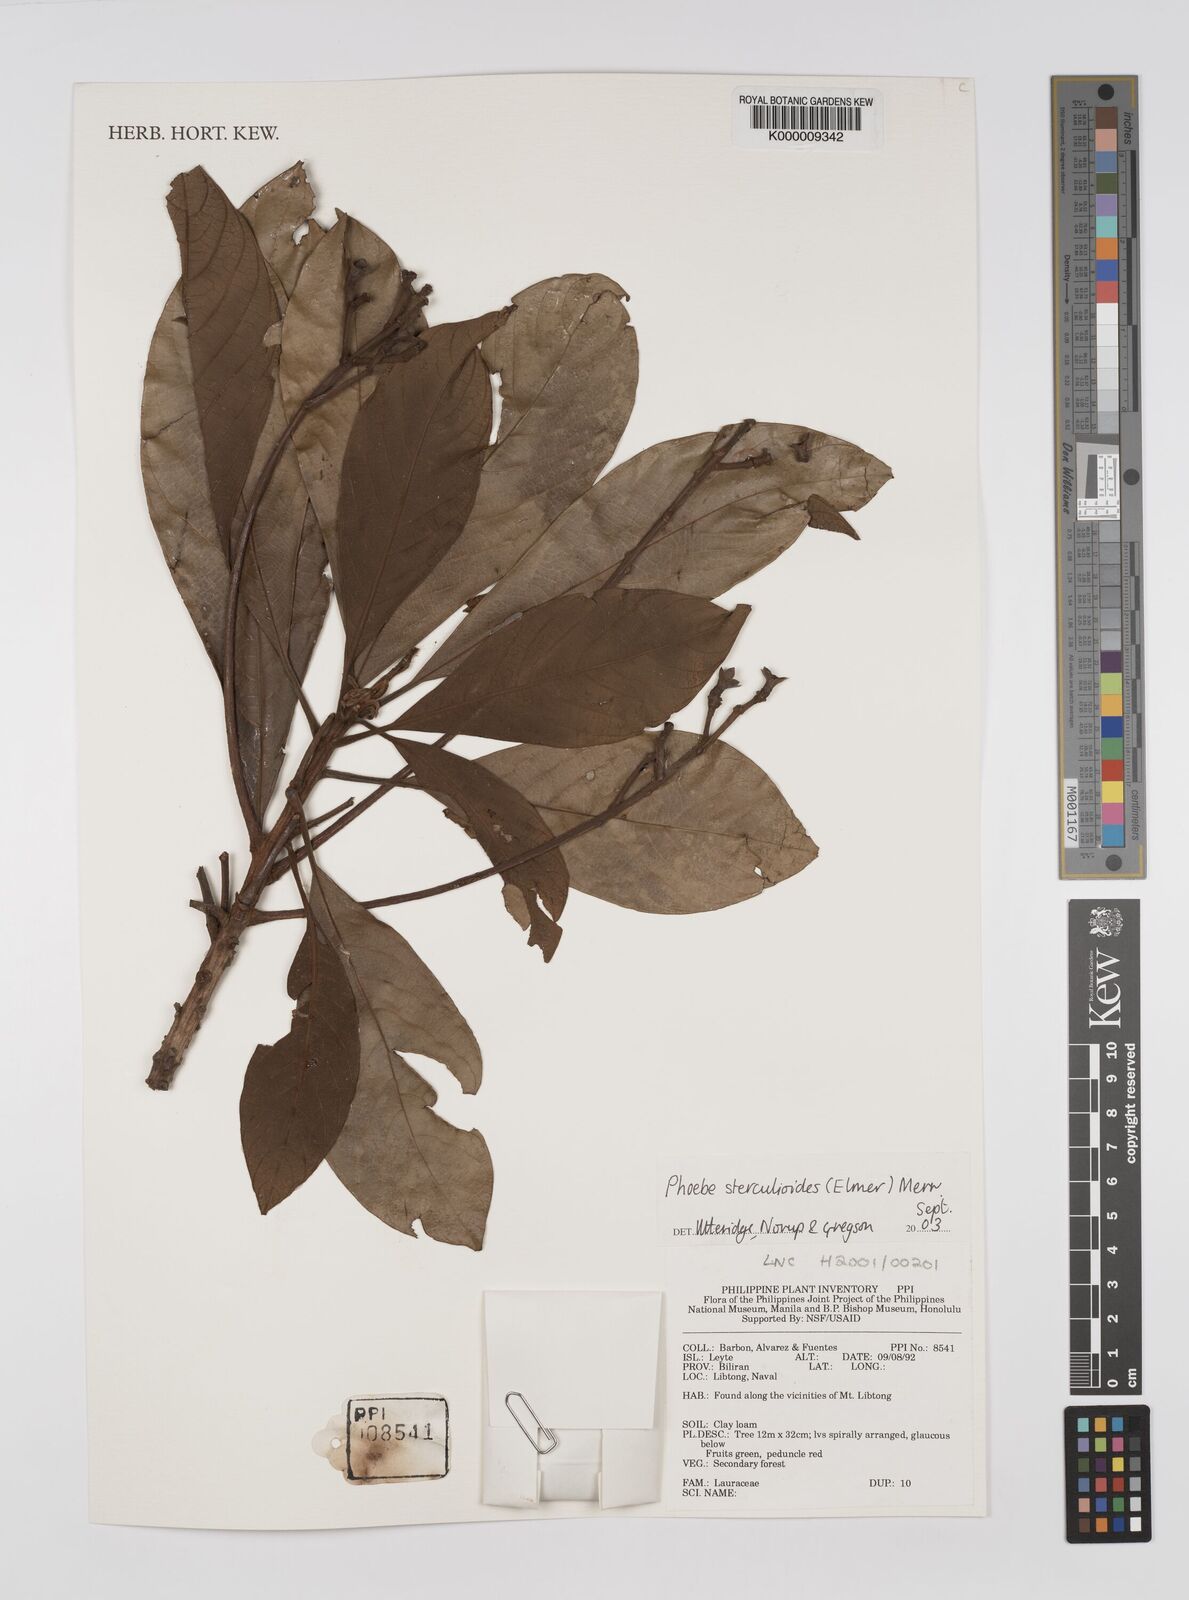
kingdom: Plantae
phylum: Tracheophyta
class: Magnoliopsida
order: Laurales
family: Lauraceae
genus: Phoebe
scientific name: Phoebe sterculioides
